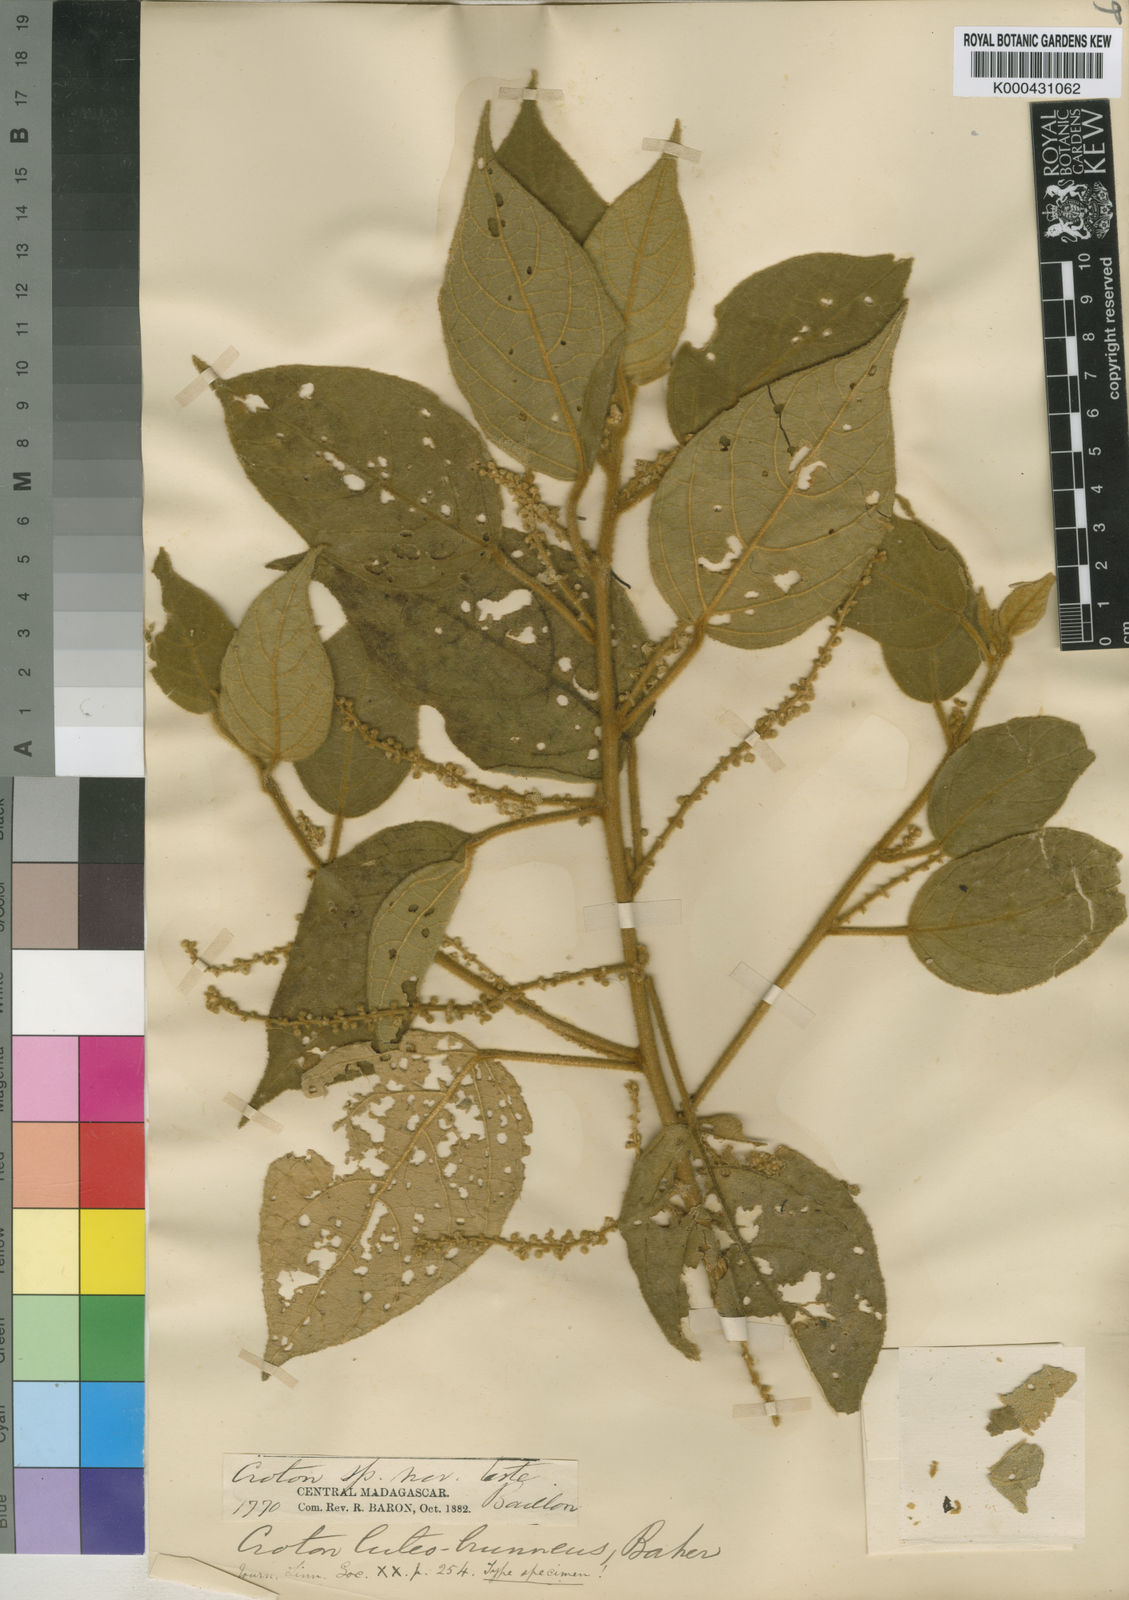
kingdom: Plantae
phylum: Tracheophyta
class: Magnoliopsida
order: Malpighiales
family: Euphorbiaceae
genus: Lobanilia
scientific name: Lobanilia luteobrunnea
